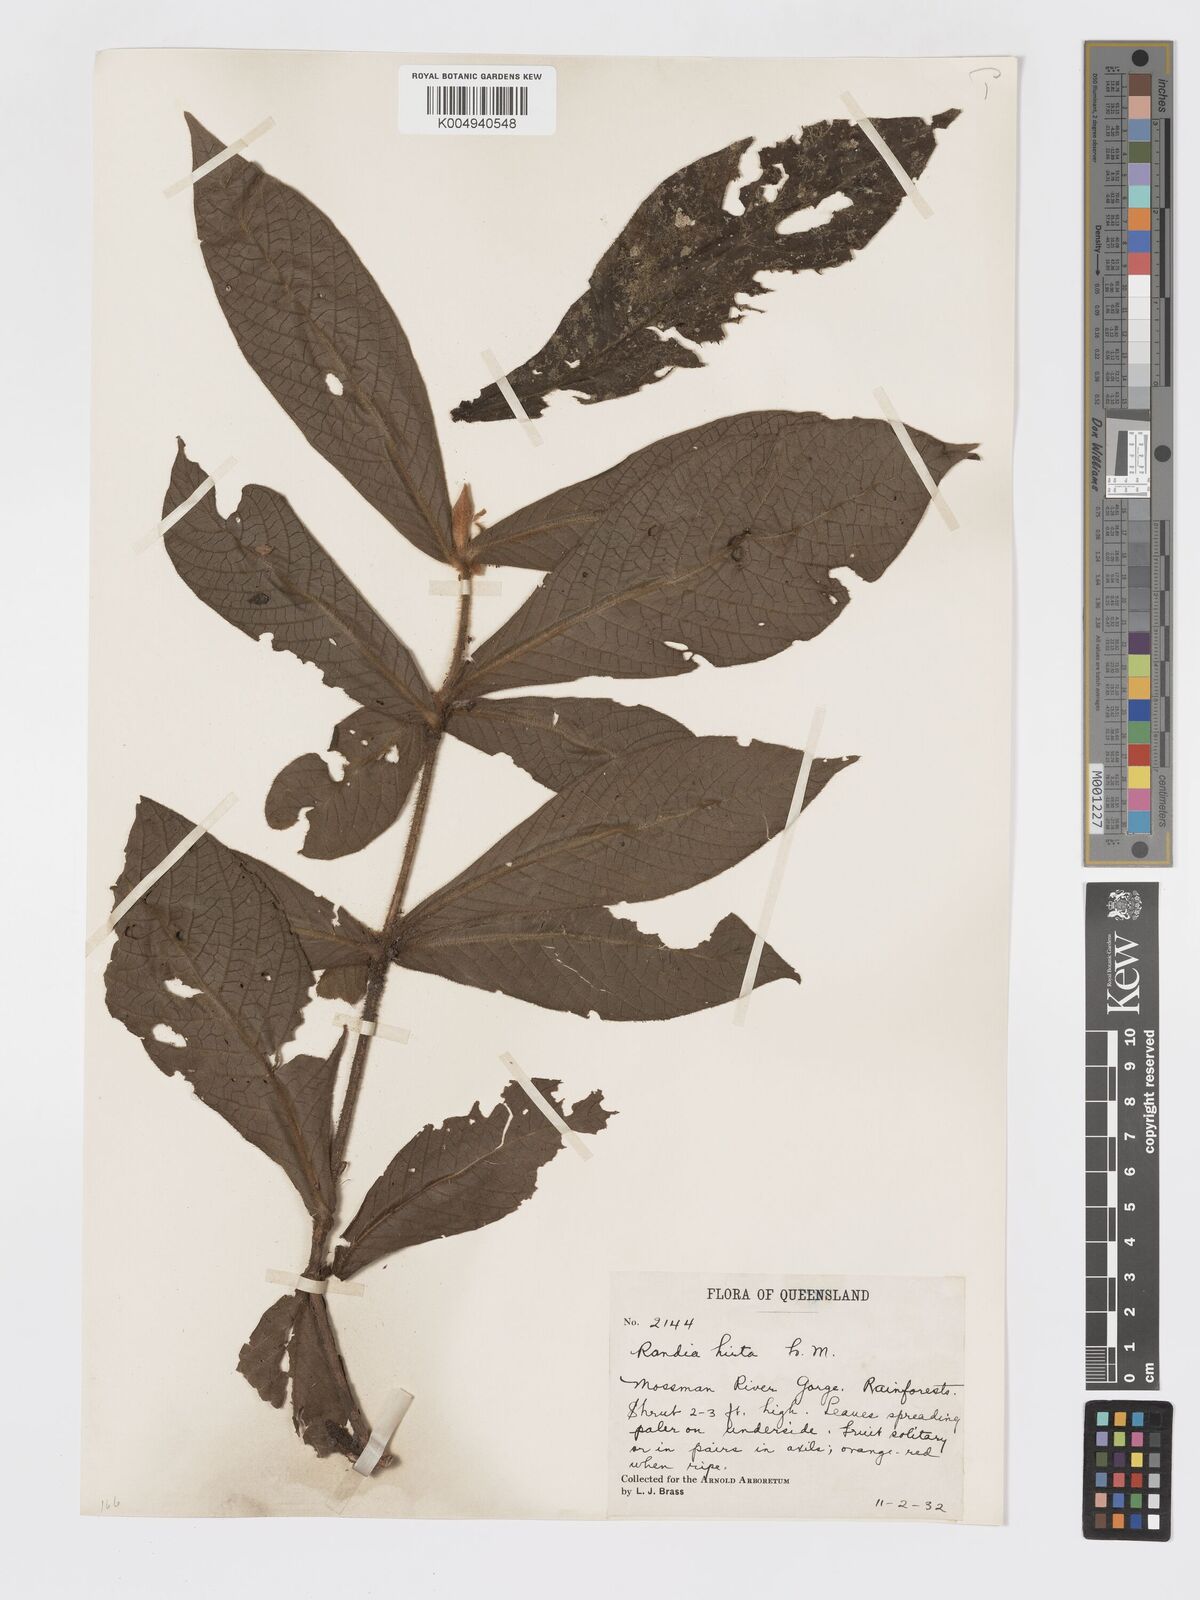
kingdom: Plantae
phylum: Tracheophyta
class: Magnoliopsida
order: Gentianales
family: Rubiaceae
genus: Atractocarpus
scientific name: Atractocarpus hirtus
